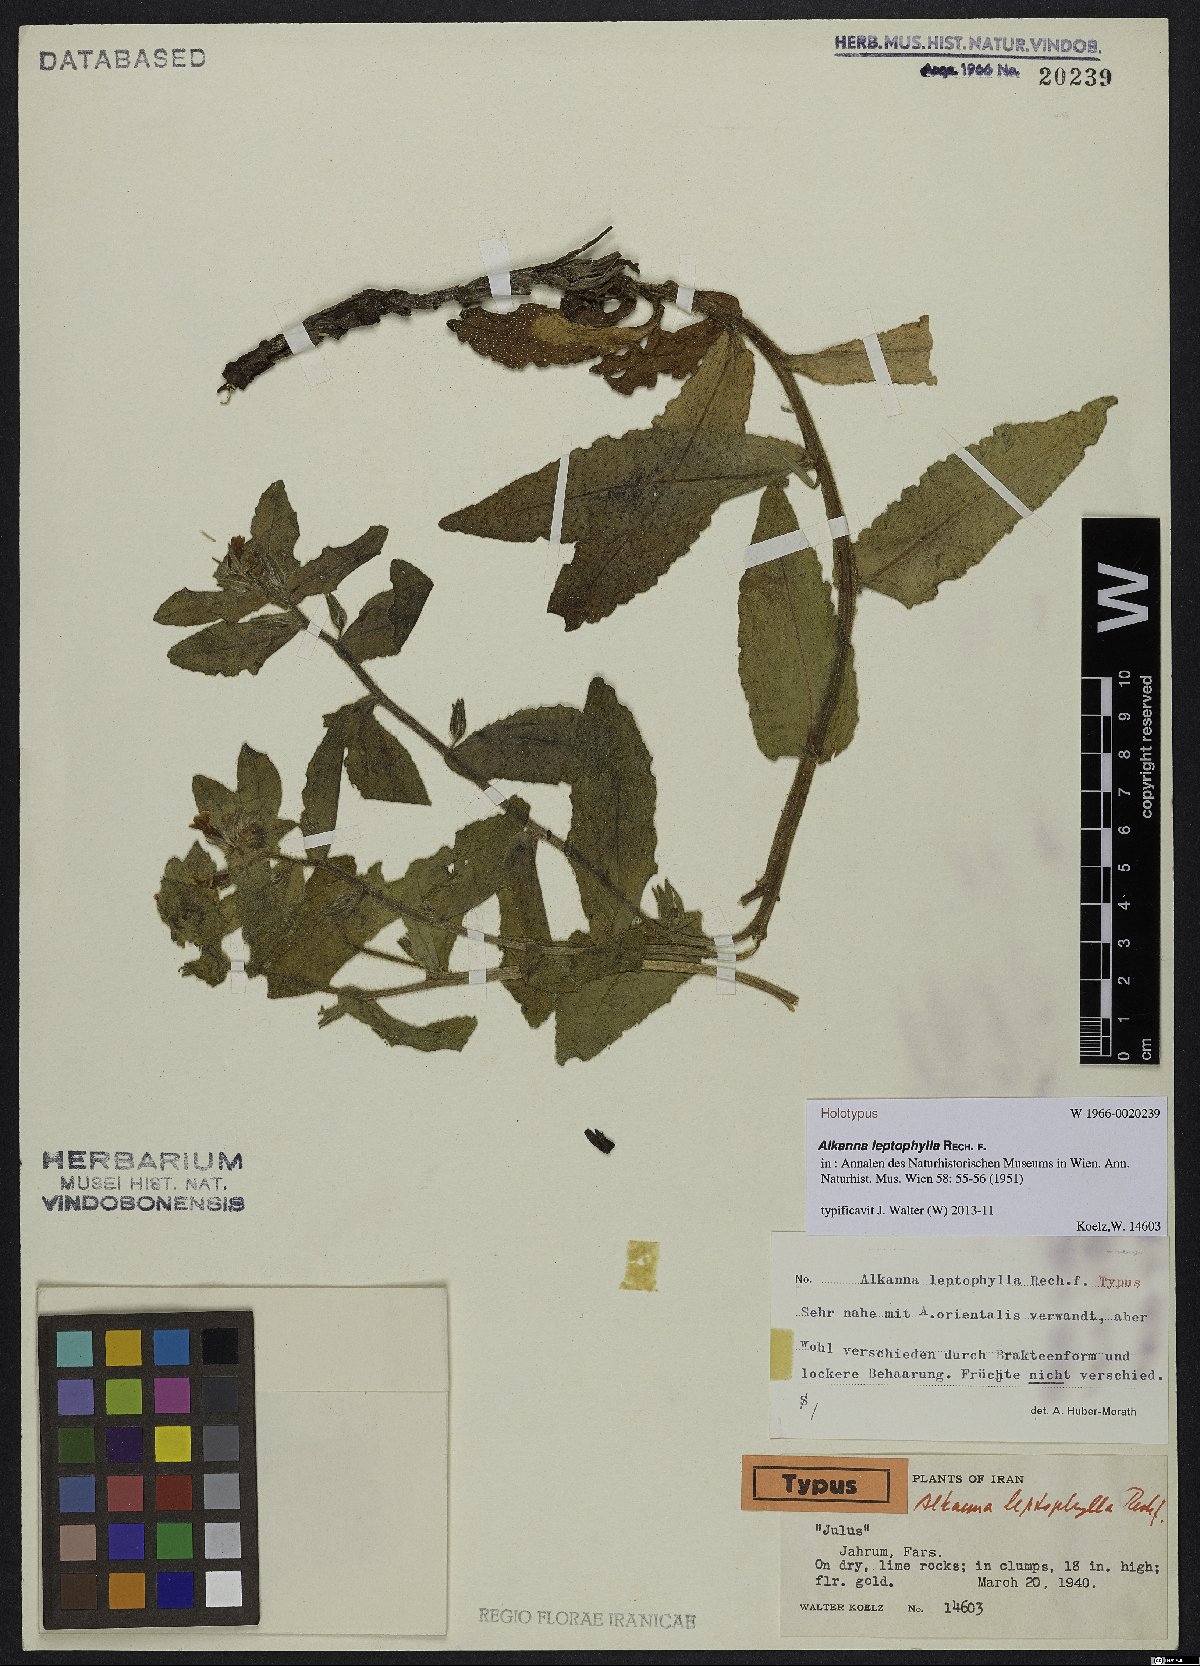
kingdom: Plantae
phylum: Tracheophyta
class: Magnoliopsida
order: Boraginales
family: Boraginaceae
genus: Alkanna
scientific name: Alkanna leptophylla
